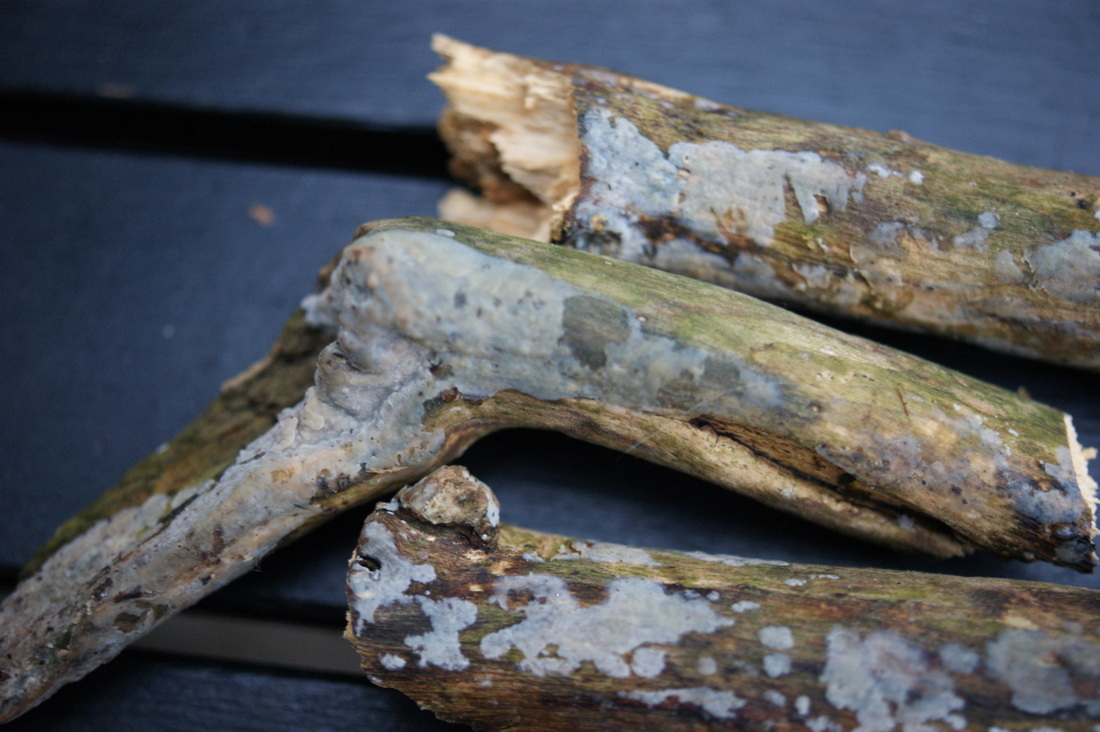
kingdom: Fungi
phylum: Basidiomycota
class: Agaricomycetes
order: Agaricales
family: Radulomycetaceae
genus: Radulomyces
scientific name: Radulomyces confluens
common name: glat naftalinskind
